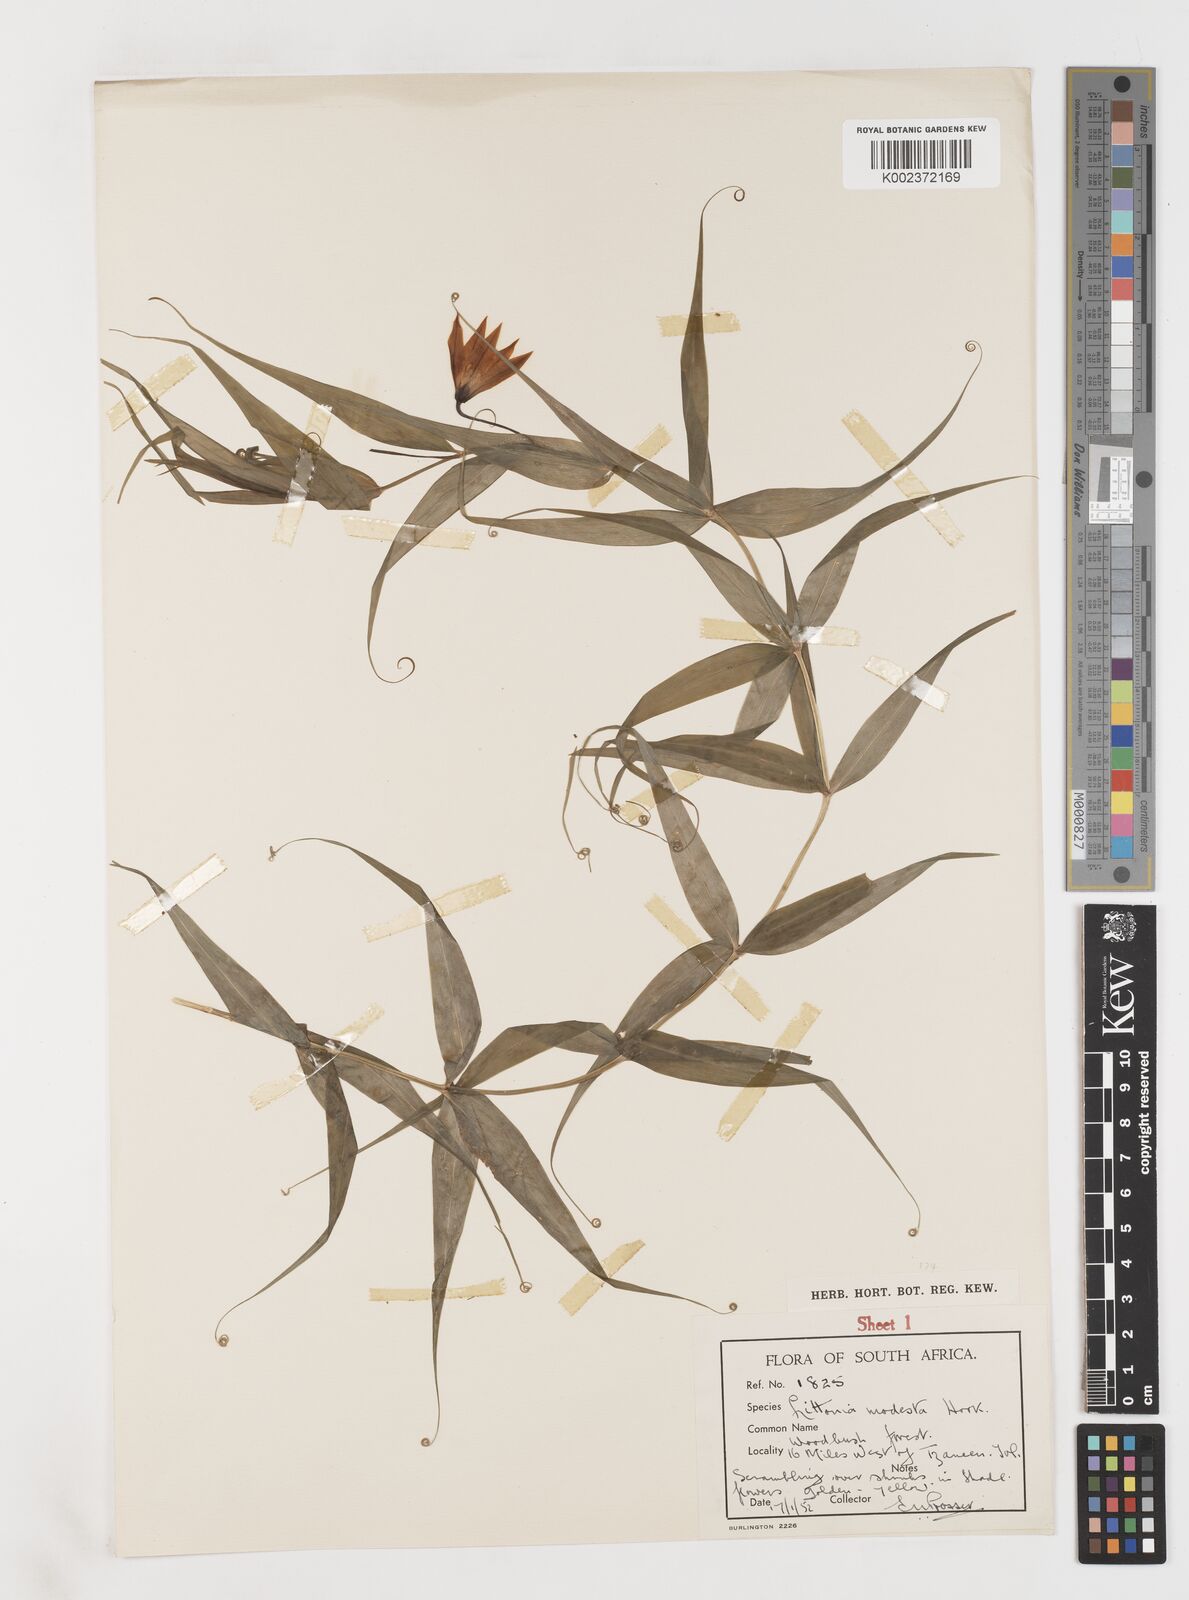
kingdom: Plantae
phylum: Tracheophyta
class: Liliopsida
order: Liliales
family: Colchicaceae
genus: Gloriosa
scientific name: Gloriosa modesta
